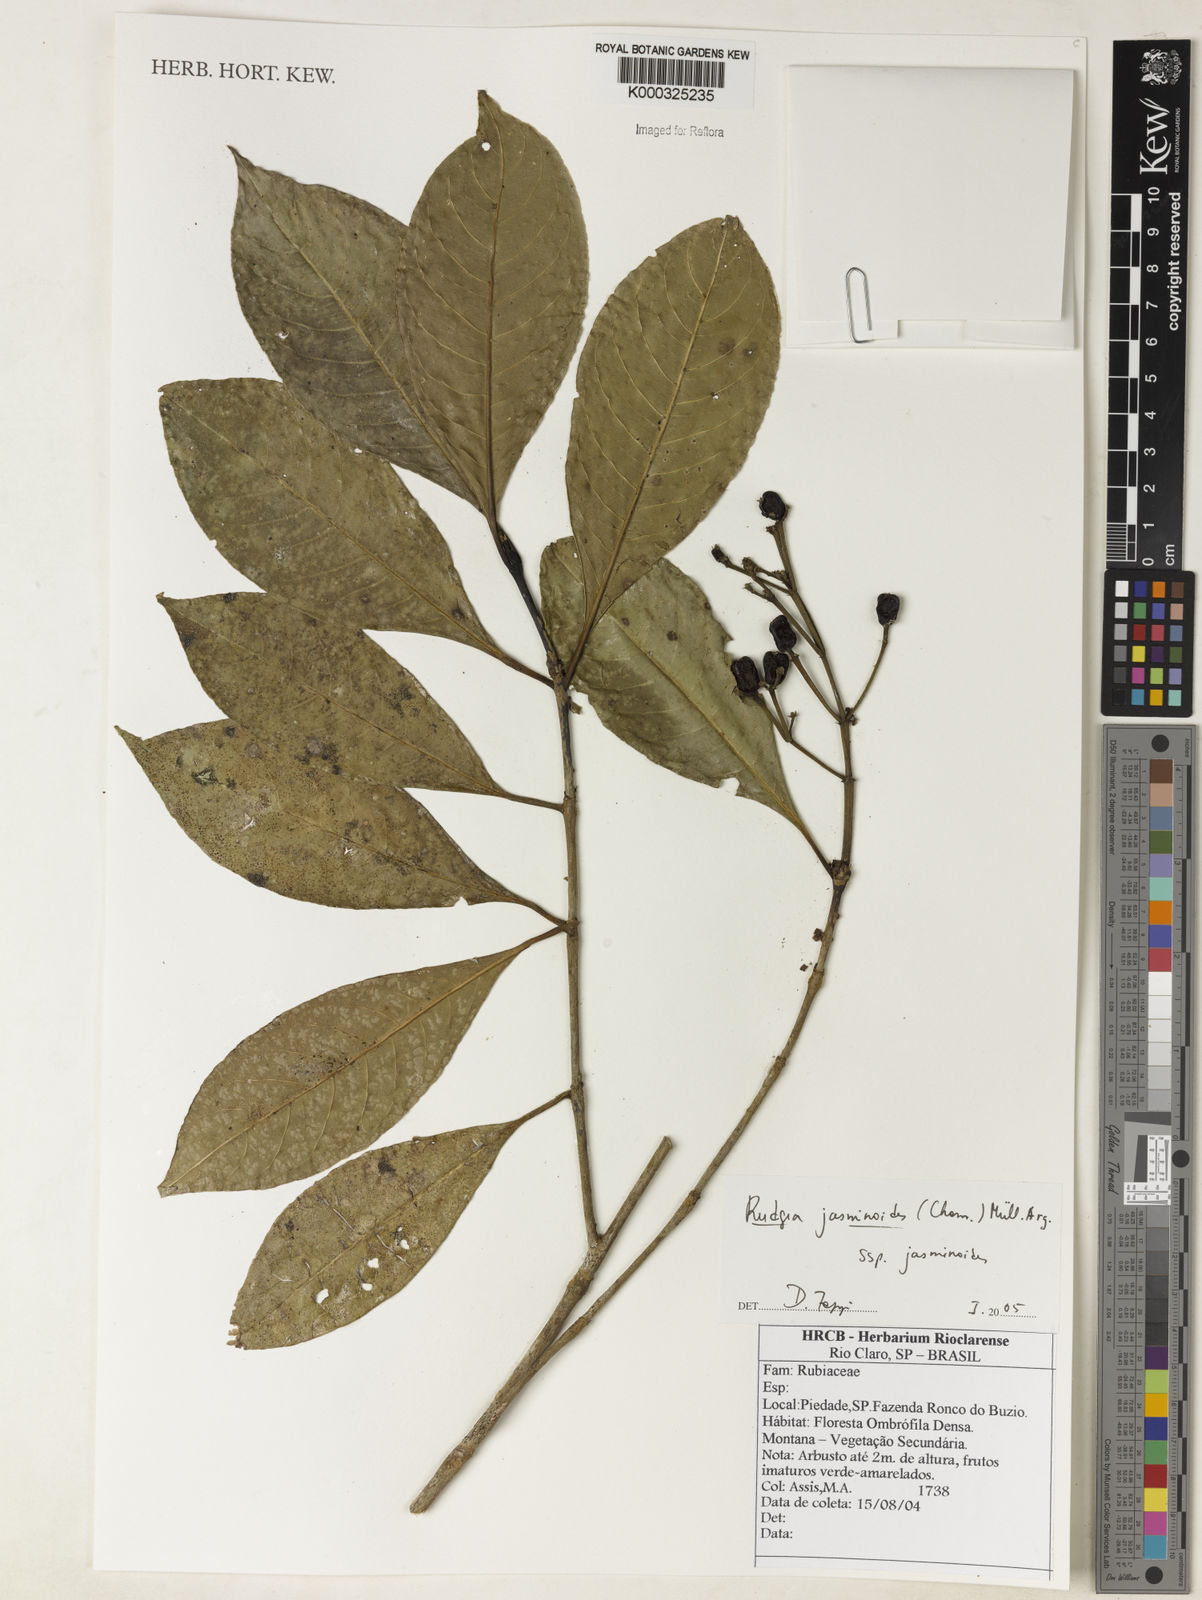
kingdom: Plantae
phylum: Tracheophyta
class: Magnoliopsida
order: Gentianales
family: Rubiaceae
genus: Rudgea
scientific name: Rudgea jasminoides
